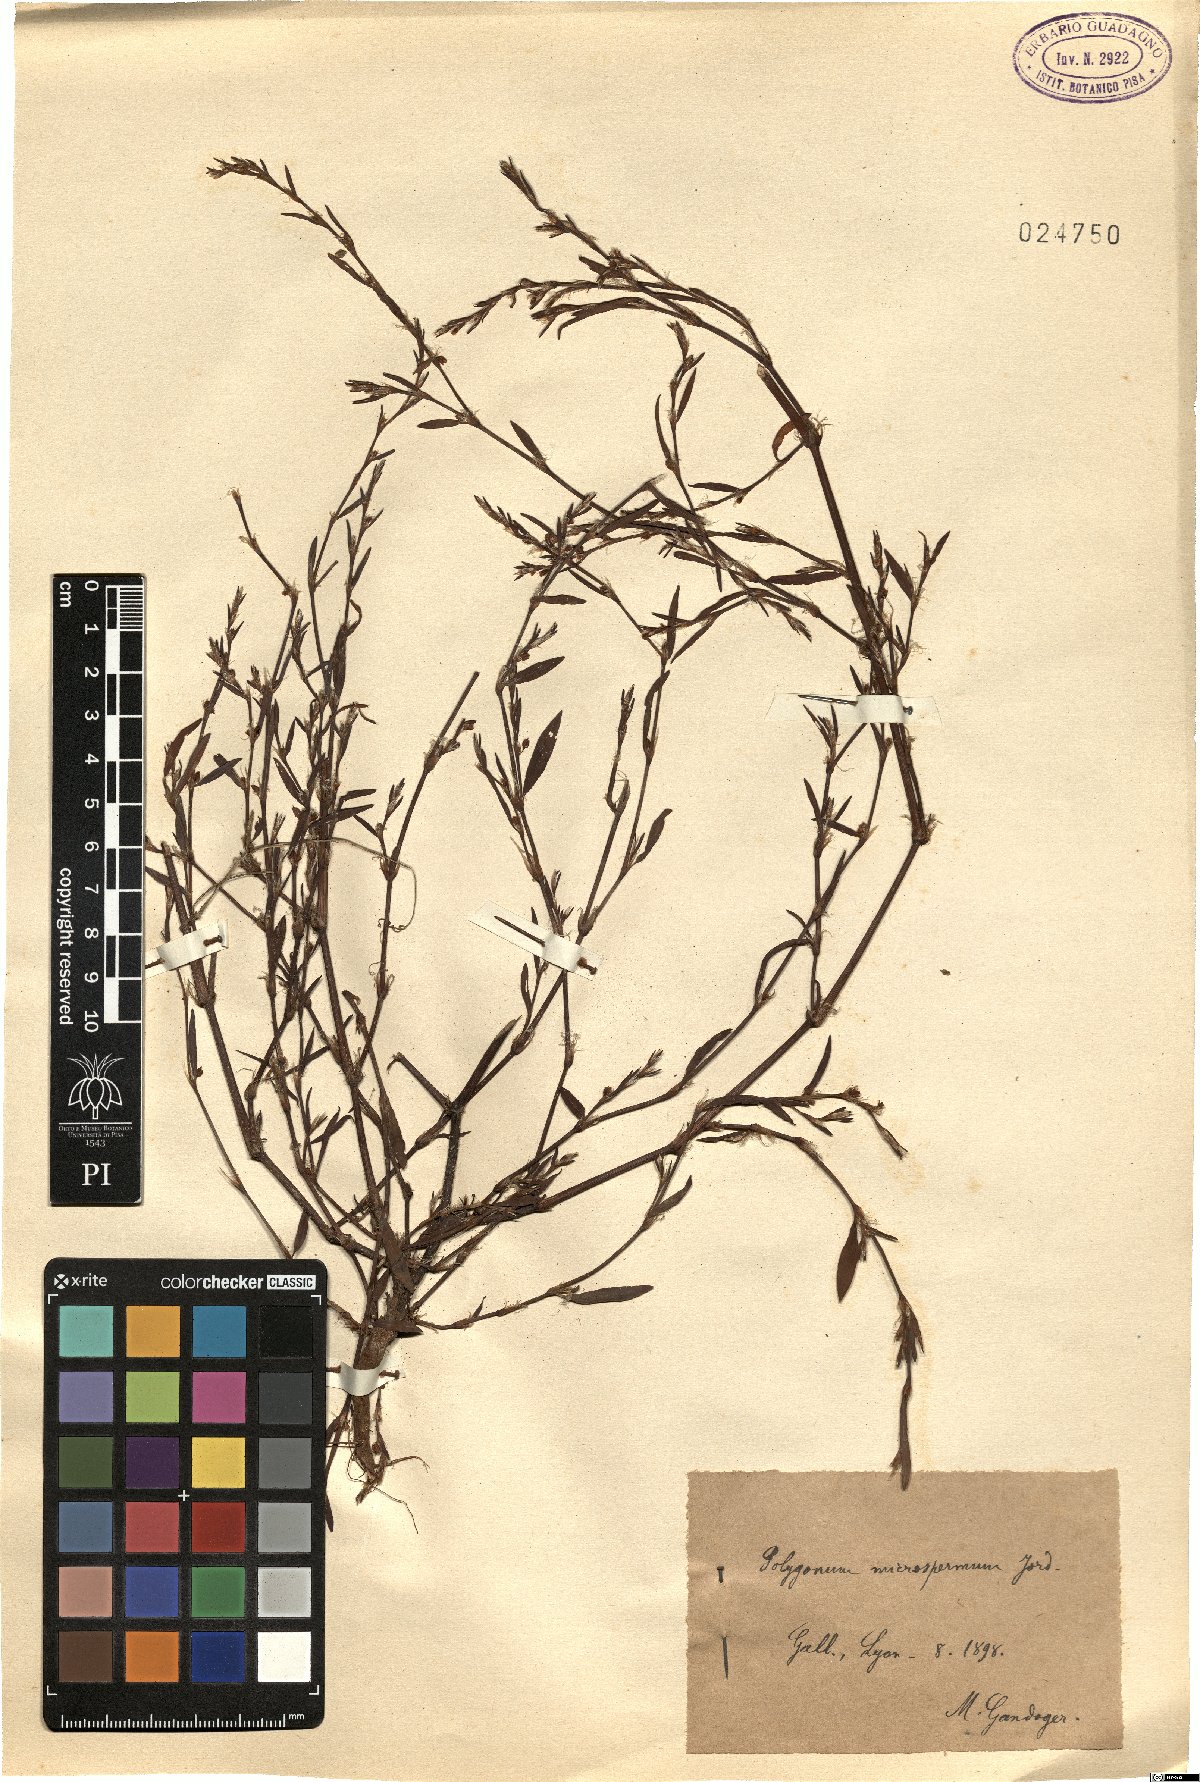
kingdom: Plantae
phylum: Tracheophyta
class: Magnoliopsida
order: Caryophyllales
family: Polygonaceae
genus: Polygonum
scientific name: Polygonum arenastrum
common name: Equal-leaved knotgrass
